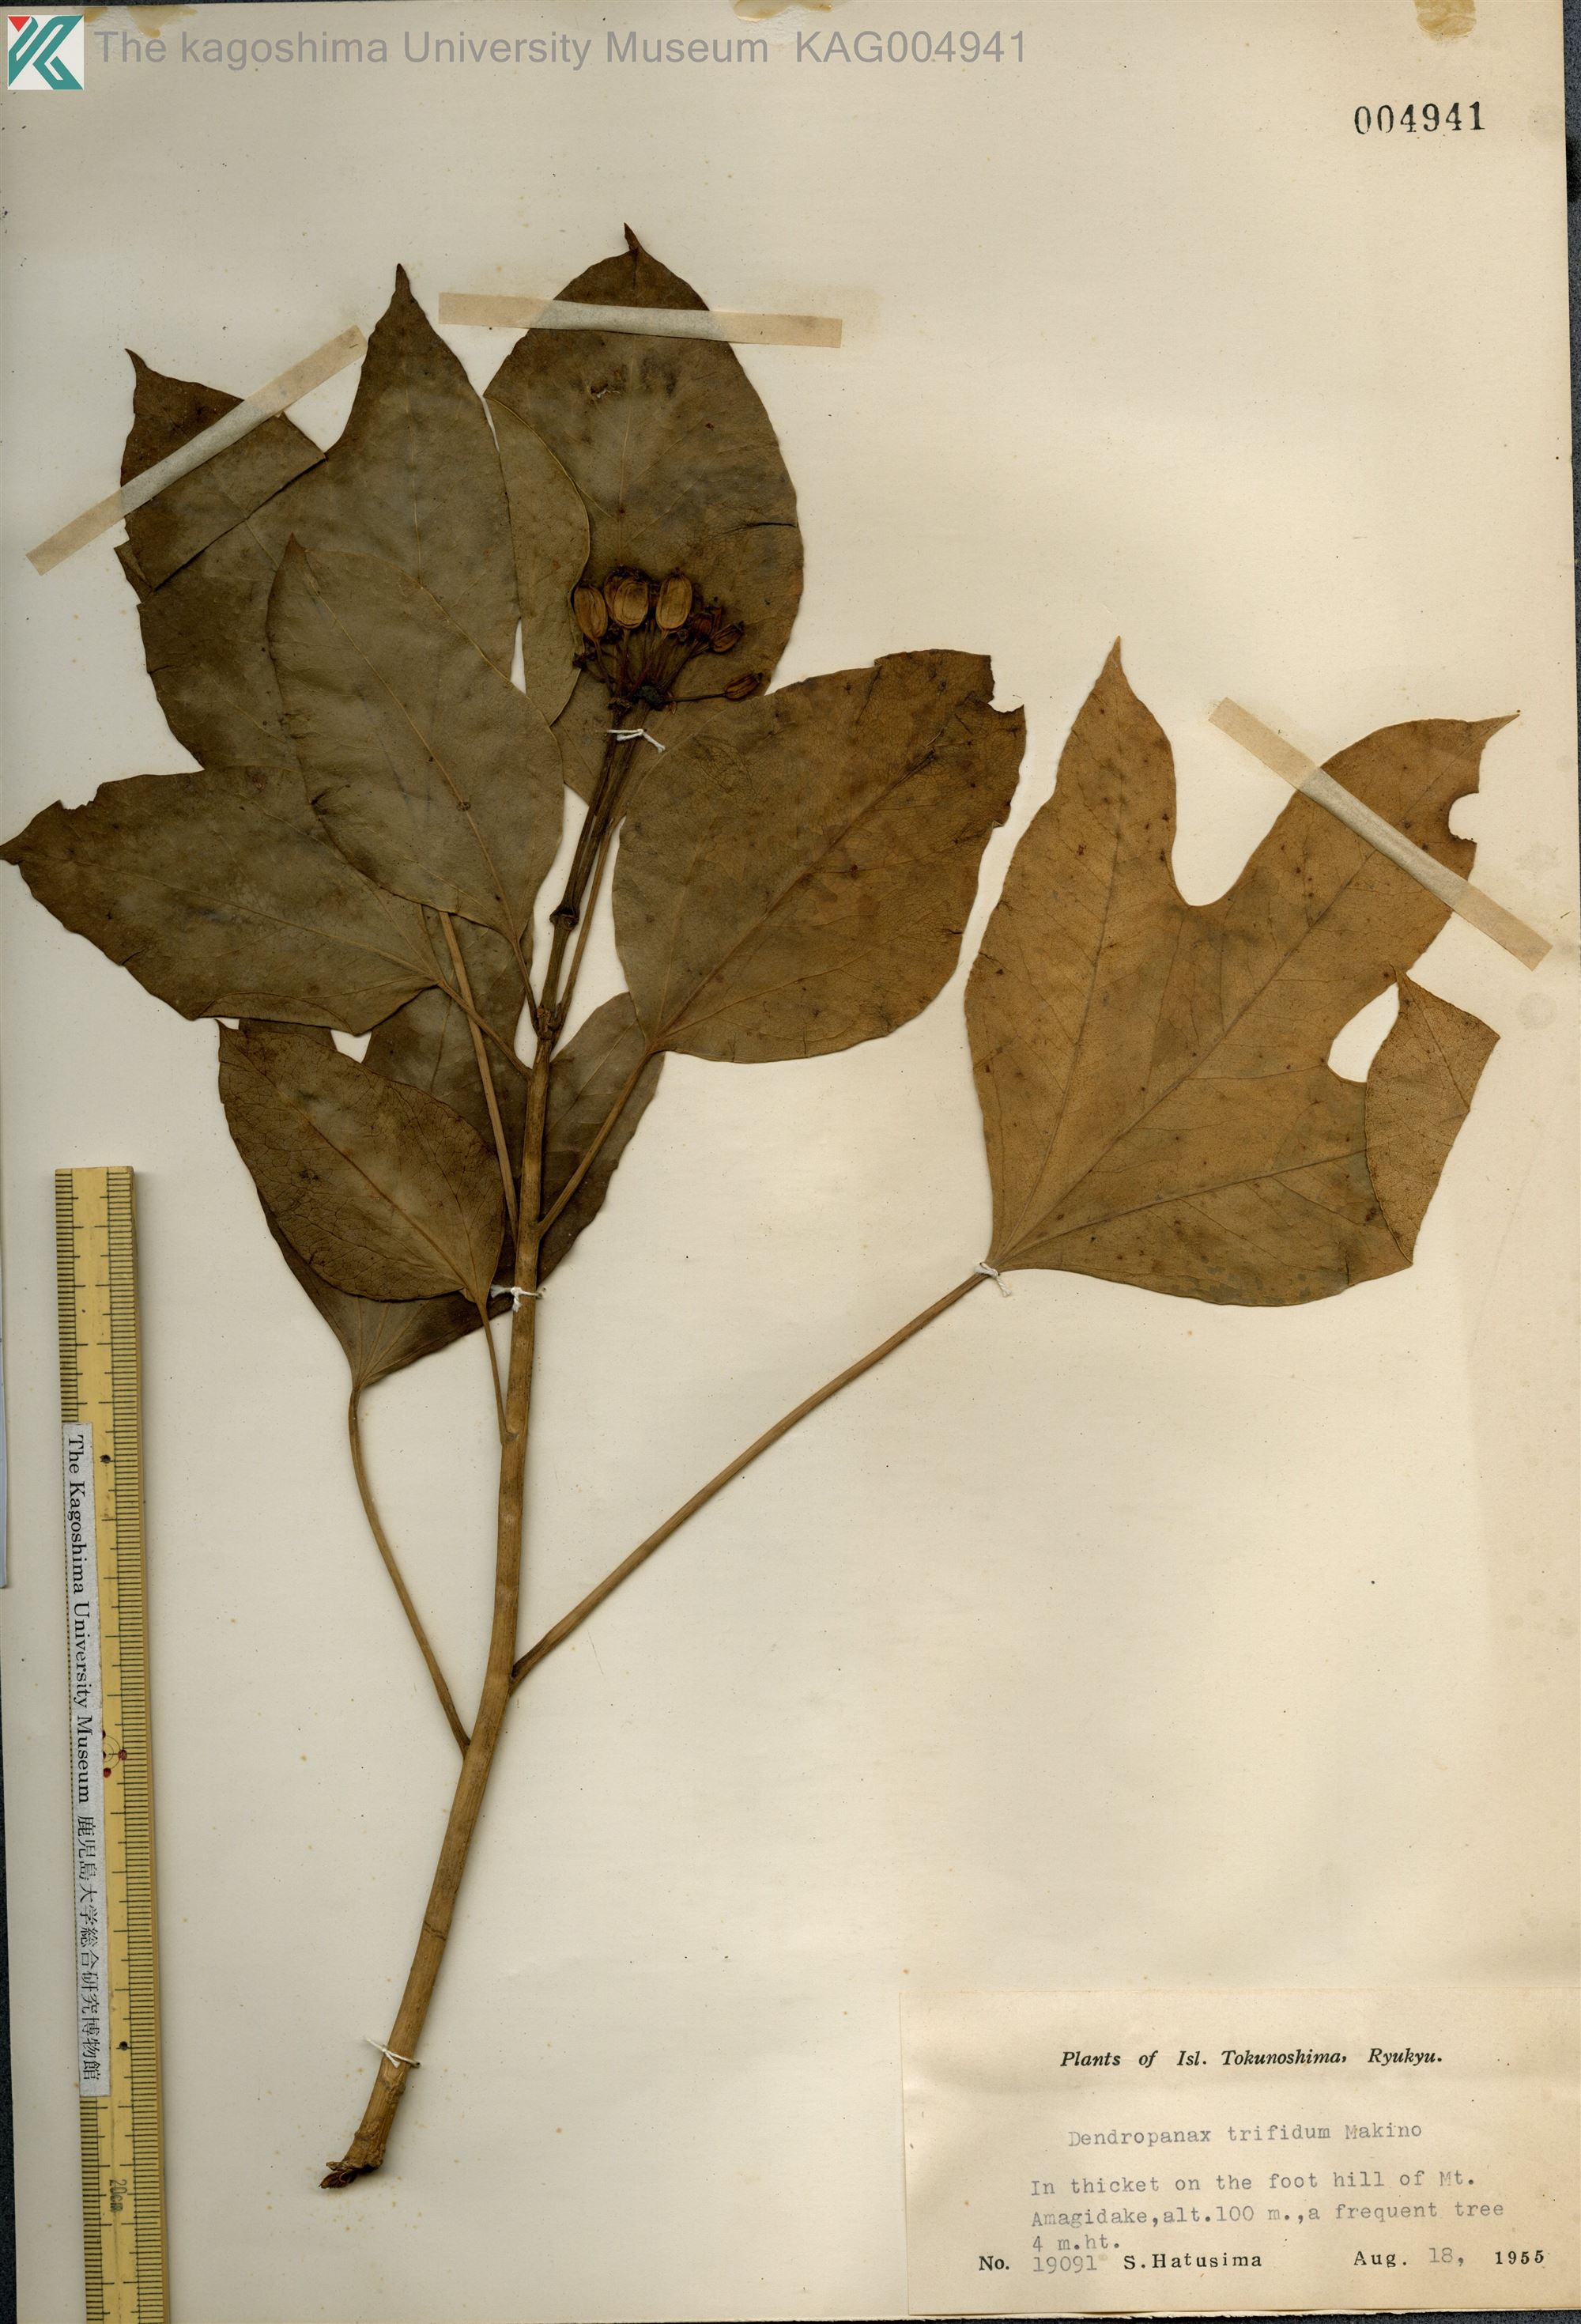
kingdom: Plantae
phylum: Tracheophyta
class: Magnoliopsida
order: Apiales
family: Araliaceae
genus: Dendropanax
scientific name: Dendropanax trifidus
